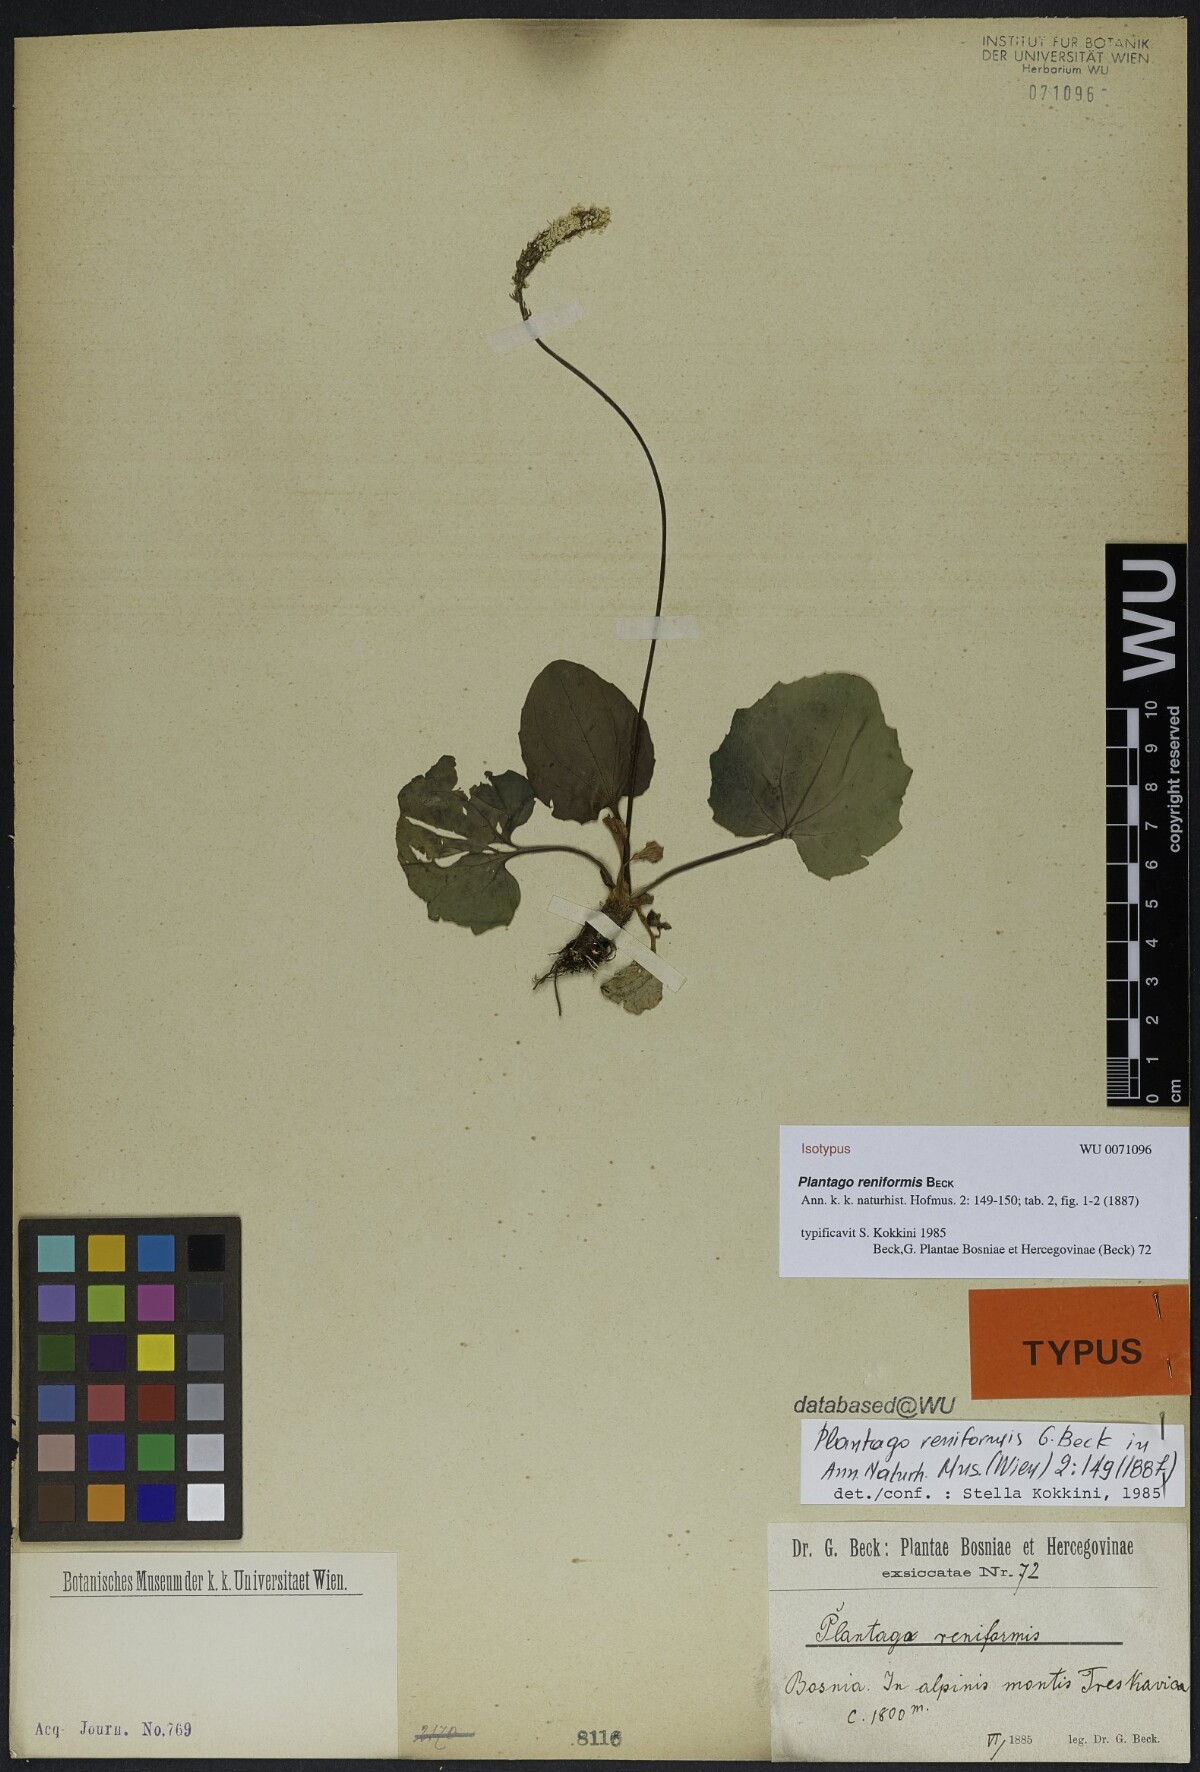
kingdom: Plantae
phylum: Tracheophyta
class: Magnoliopsida
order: Lamiales
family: Plantaginaceae
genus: Plantago
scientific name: Plantago reniformis
